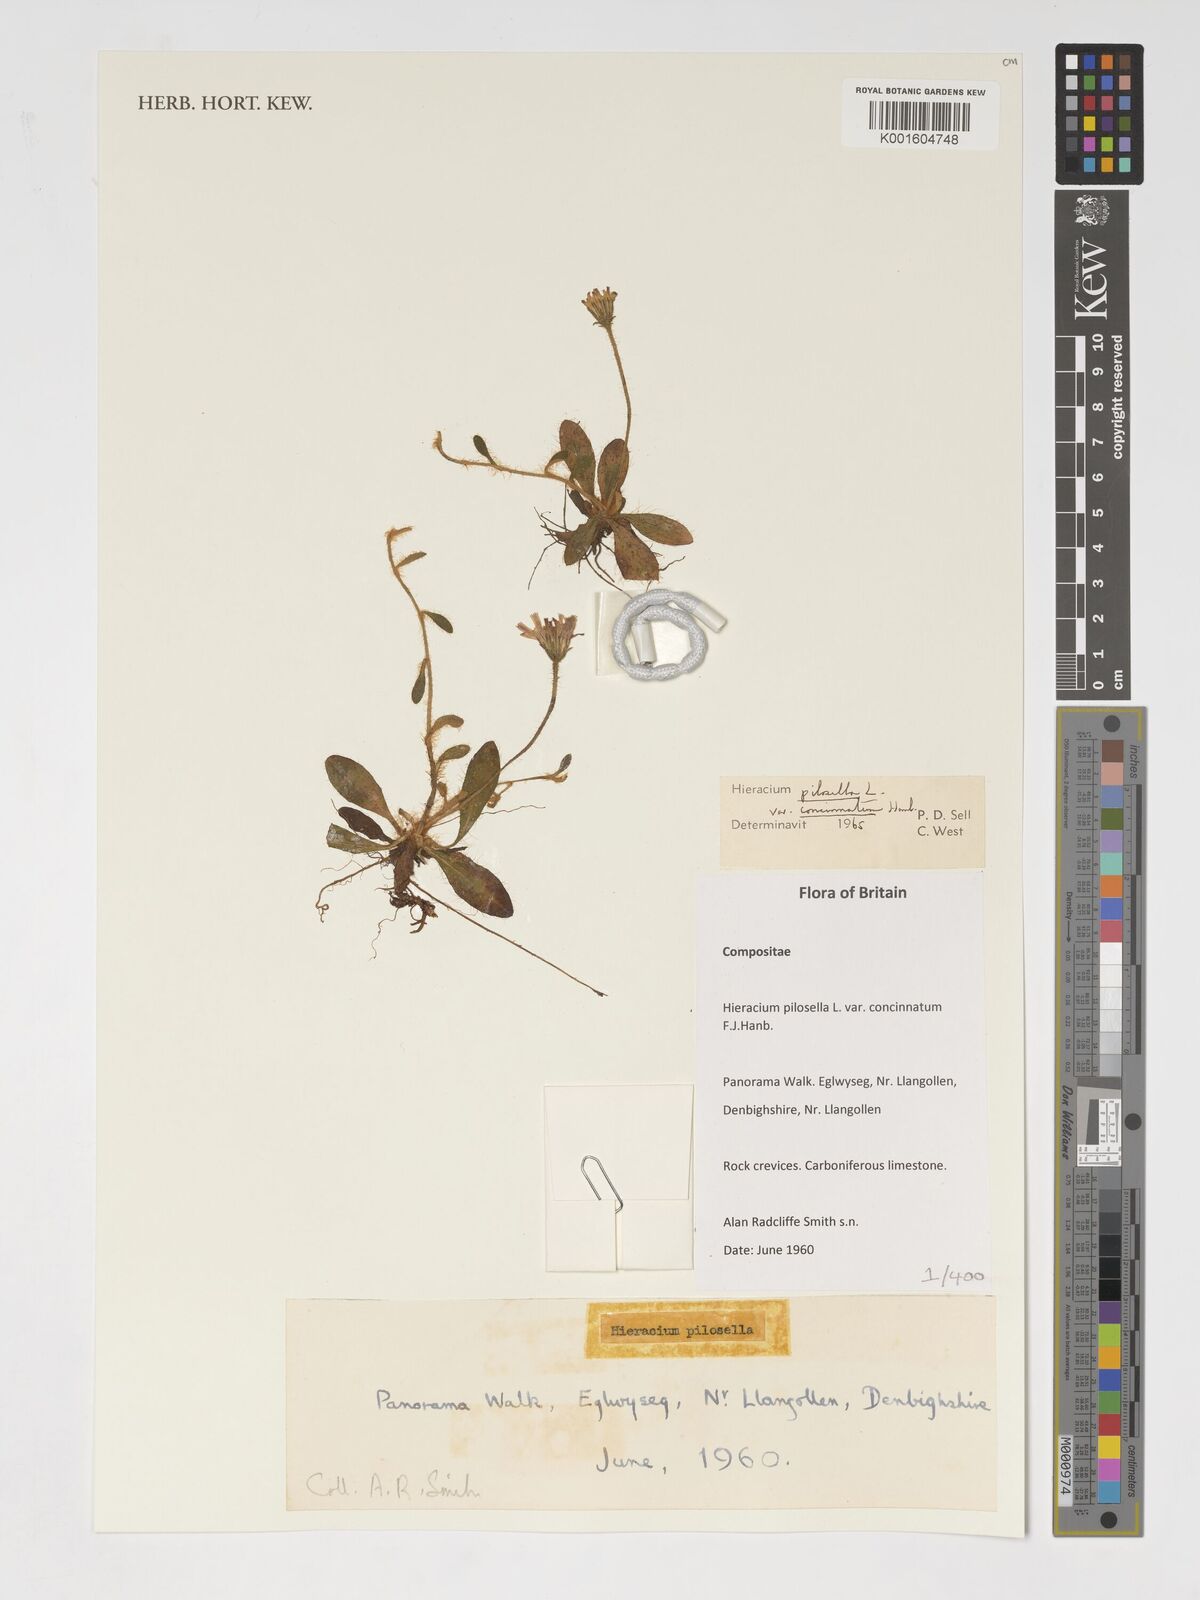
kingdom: Plantae
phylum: Tracheophyta
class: Magnoliopsida
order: Asterales
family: Asteraceae
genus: Pilosella
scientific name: Pilosella officinarum
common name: Mouse-ear hawkweed
